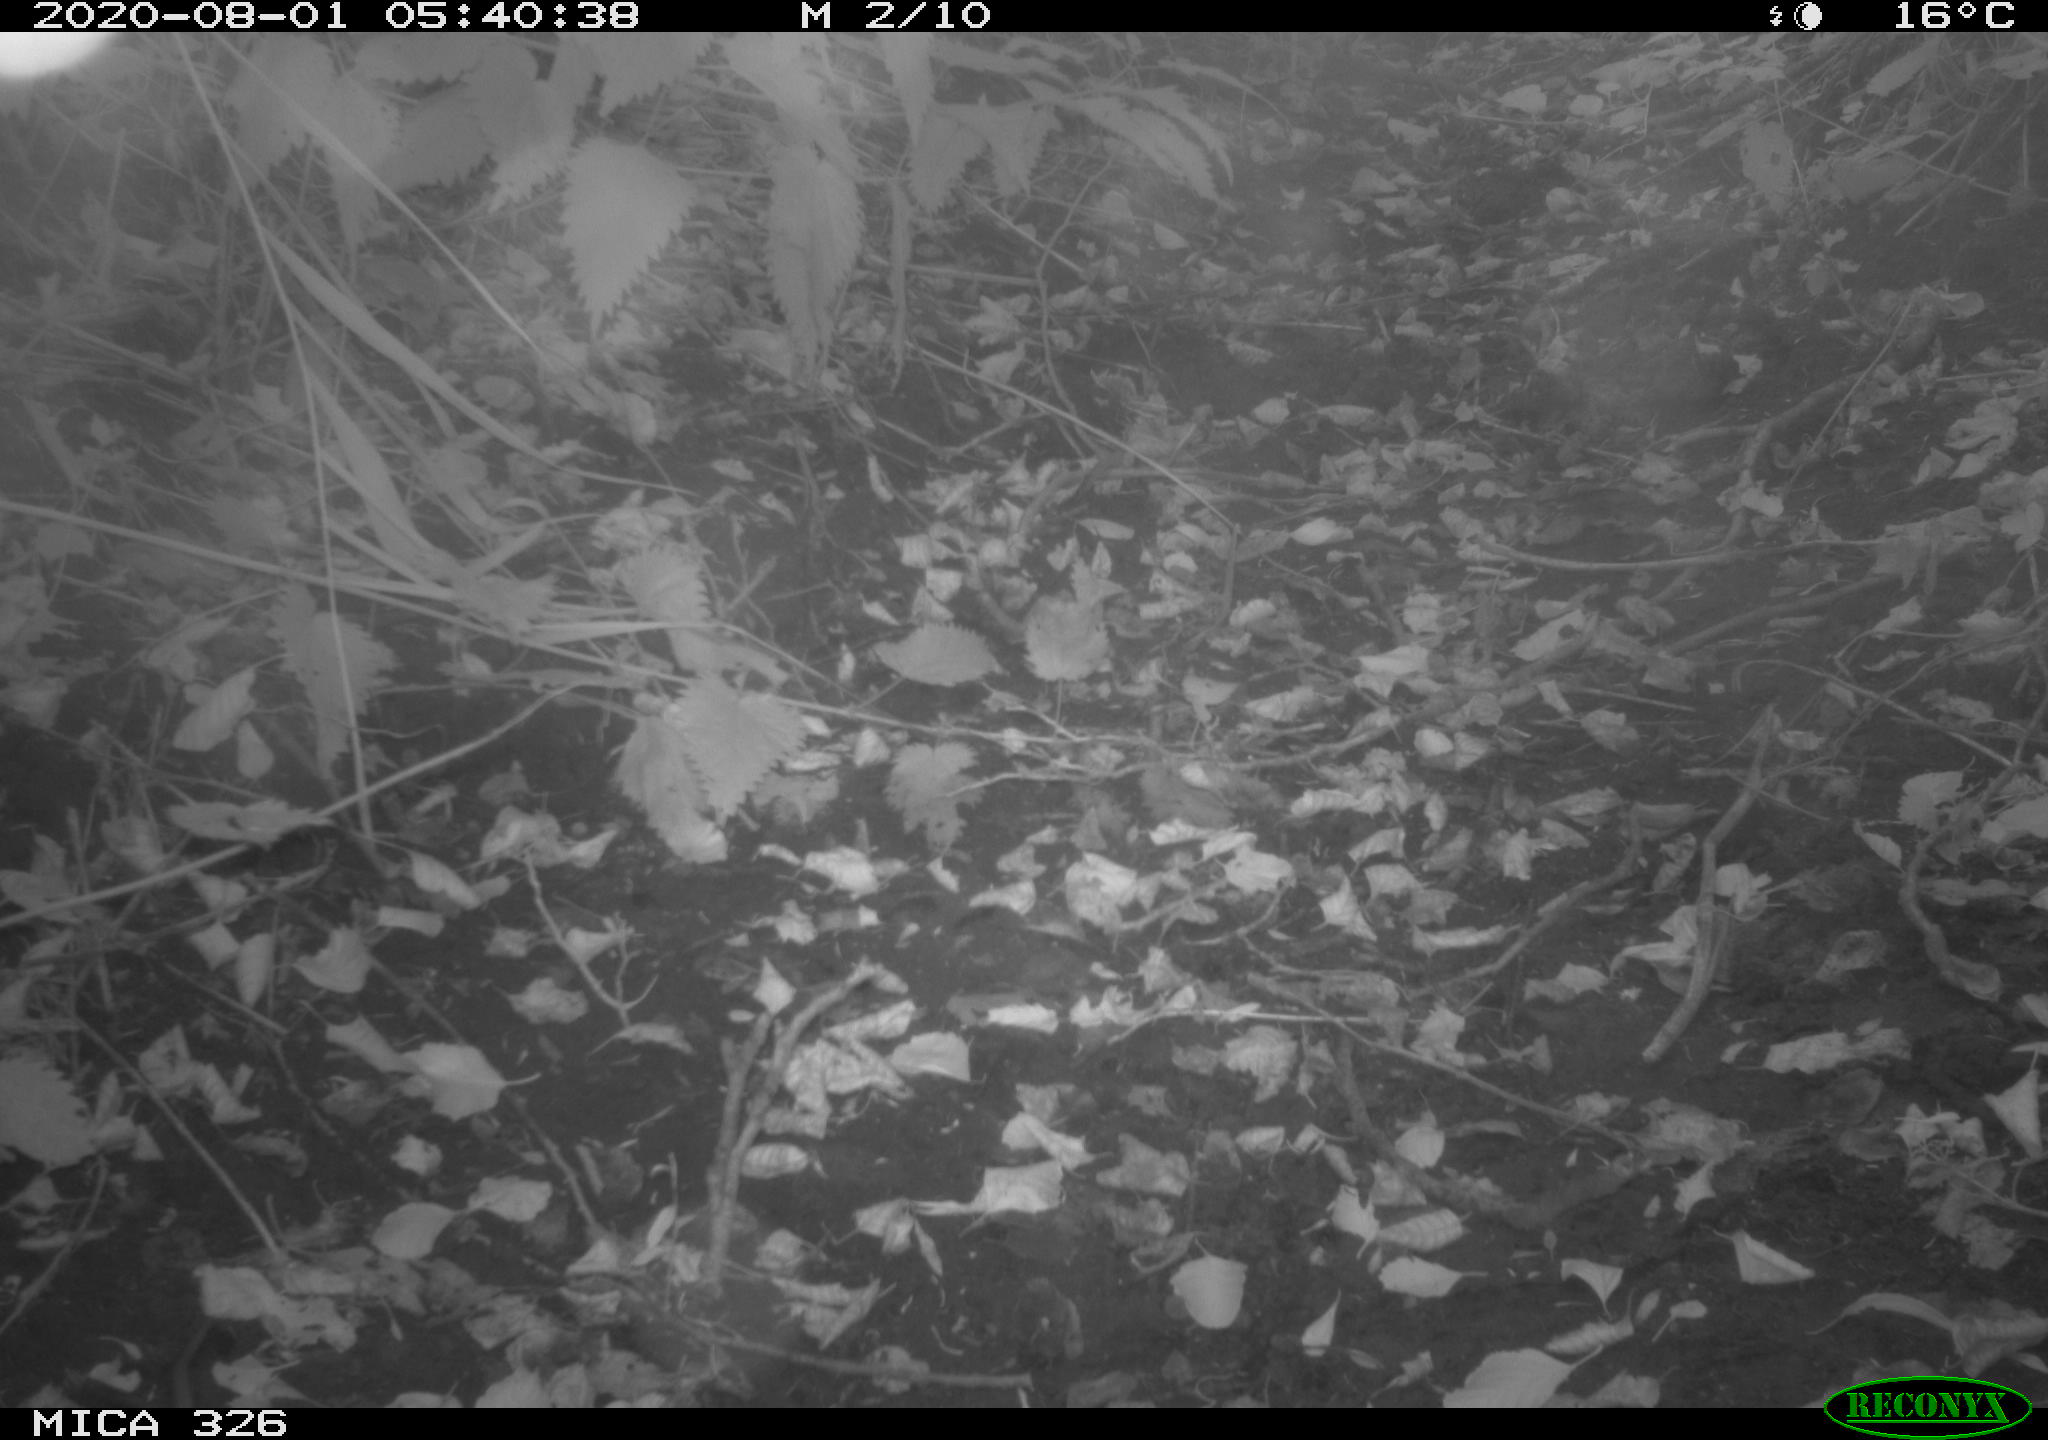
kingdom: Animalia
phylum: Chordata
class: Mammalia
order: Rodentia
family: Muridae
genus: Rattus
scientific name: Rattus norvegicus
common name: Brown rat
